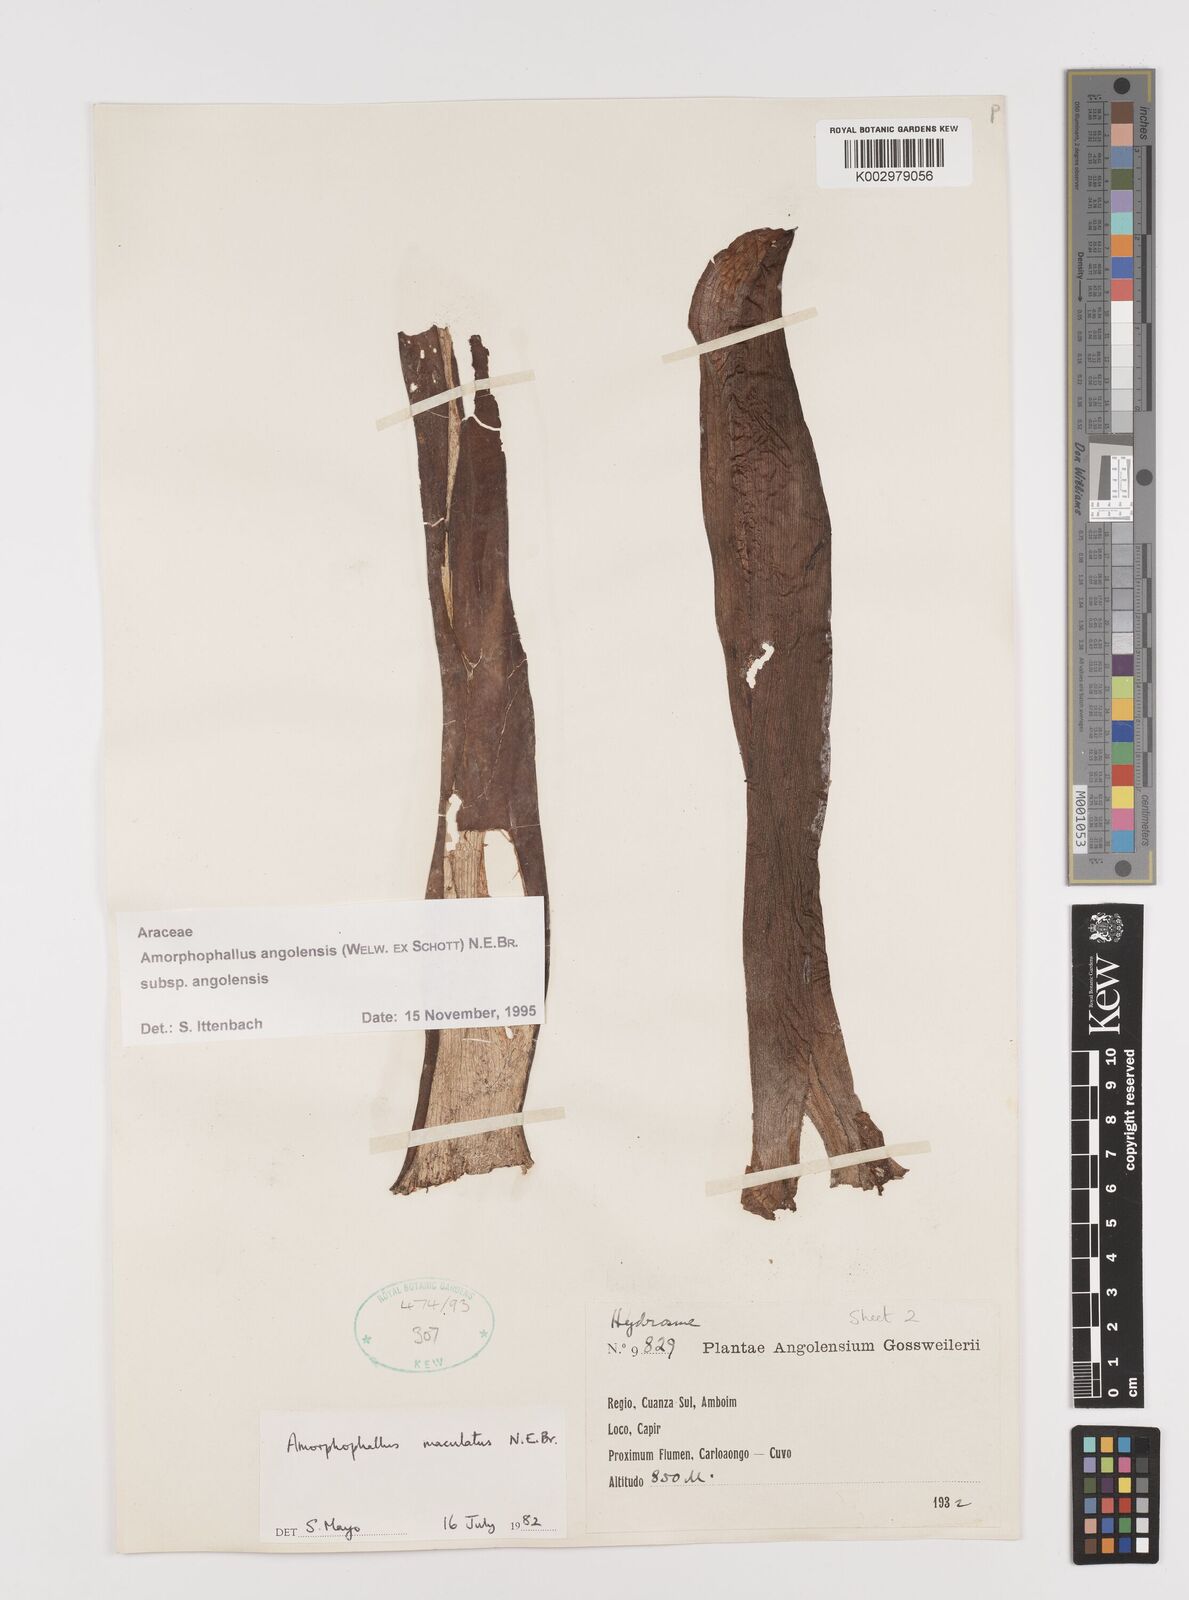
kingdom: Plantae
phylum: Tracheophyta
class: Liliopsida
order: Alismatales
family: Araceae
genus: Amorphophallus
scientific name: Amorphophallus angolensis
